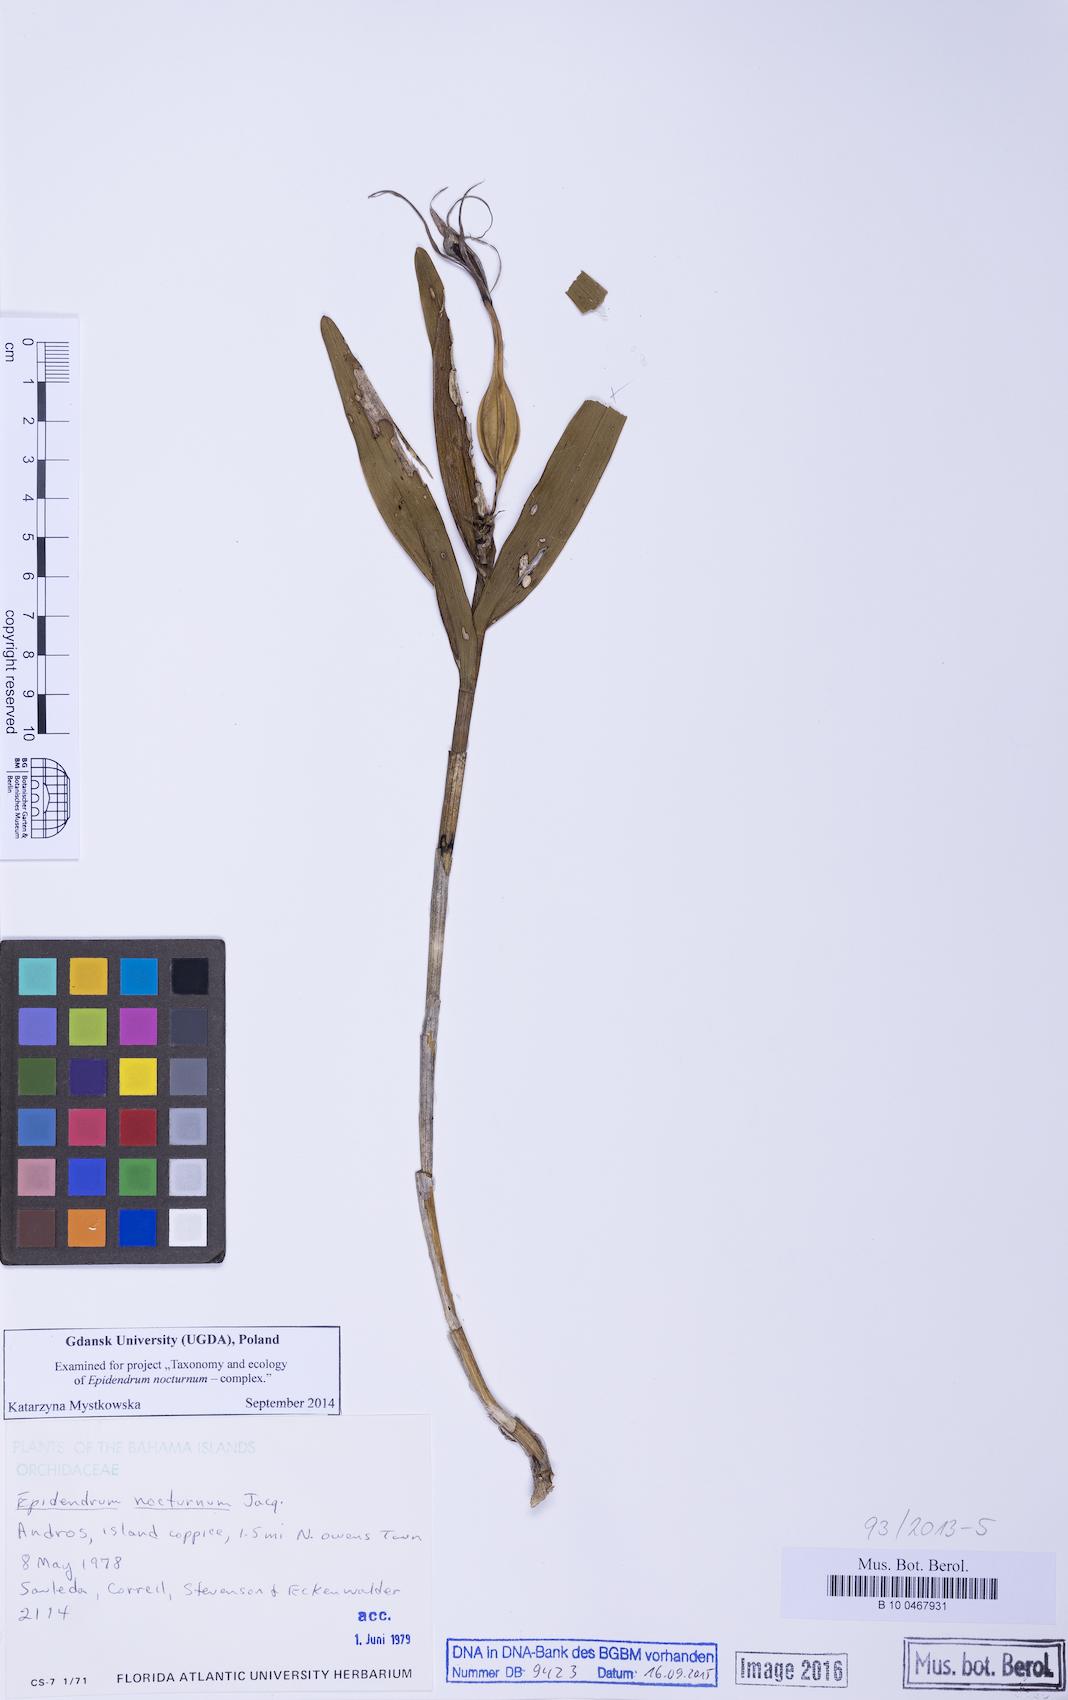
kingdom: Plantae
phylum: Tracheophyta
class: Liliopsida
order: Asparagales
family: Orchidaceae
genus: Epidendrum
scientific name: Epidendrum nocturnum
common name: Night scented orchid
